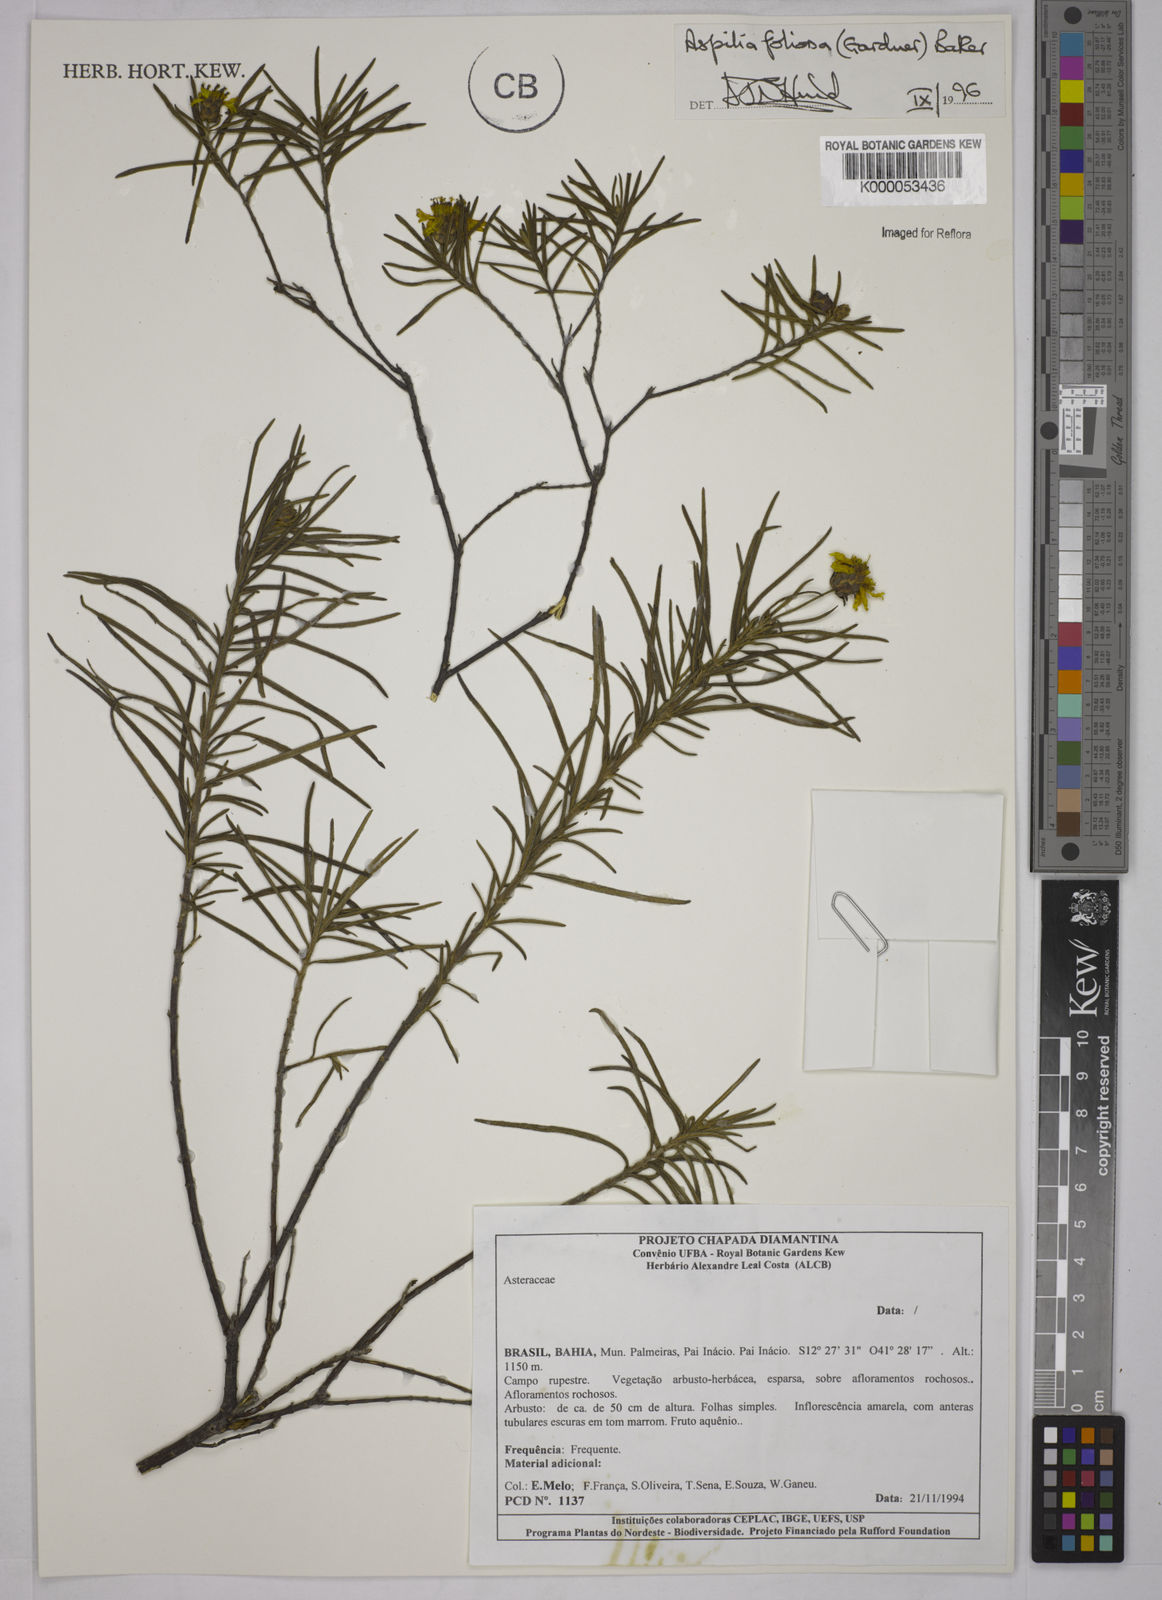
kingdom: Plantae
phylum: Tracheophyta
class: Magnoliopsida
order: Asterales
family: Asteraceae
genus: Aspilia
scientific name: Aspilia
